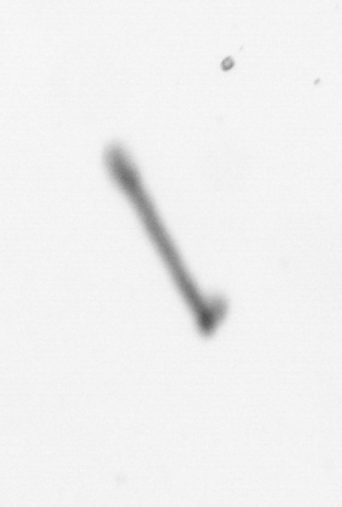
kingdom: Chromista
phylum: Ochrophyta
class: Bacillariophyceae
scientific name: Bacillariophyceae
